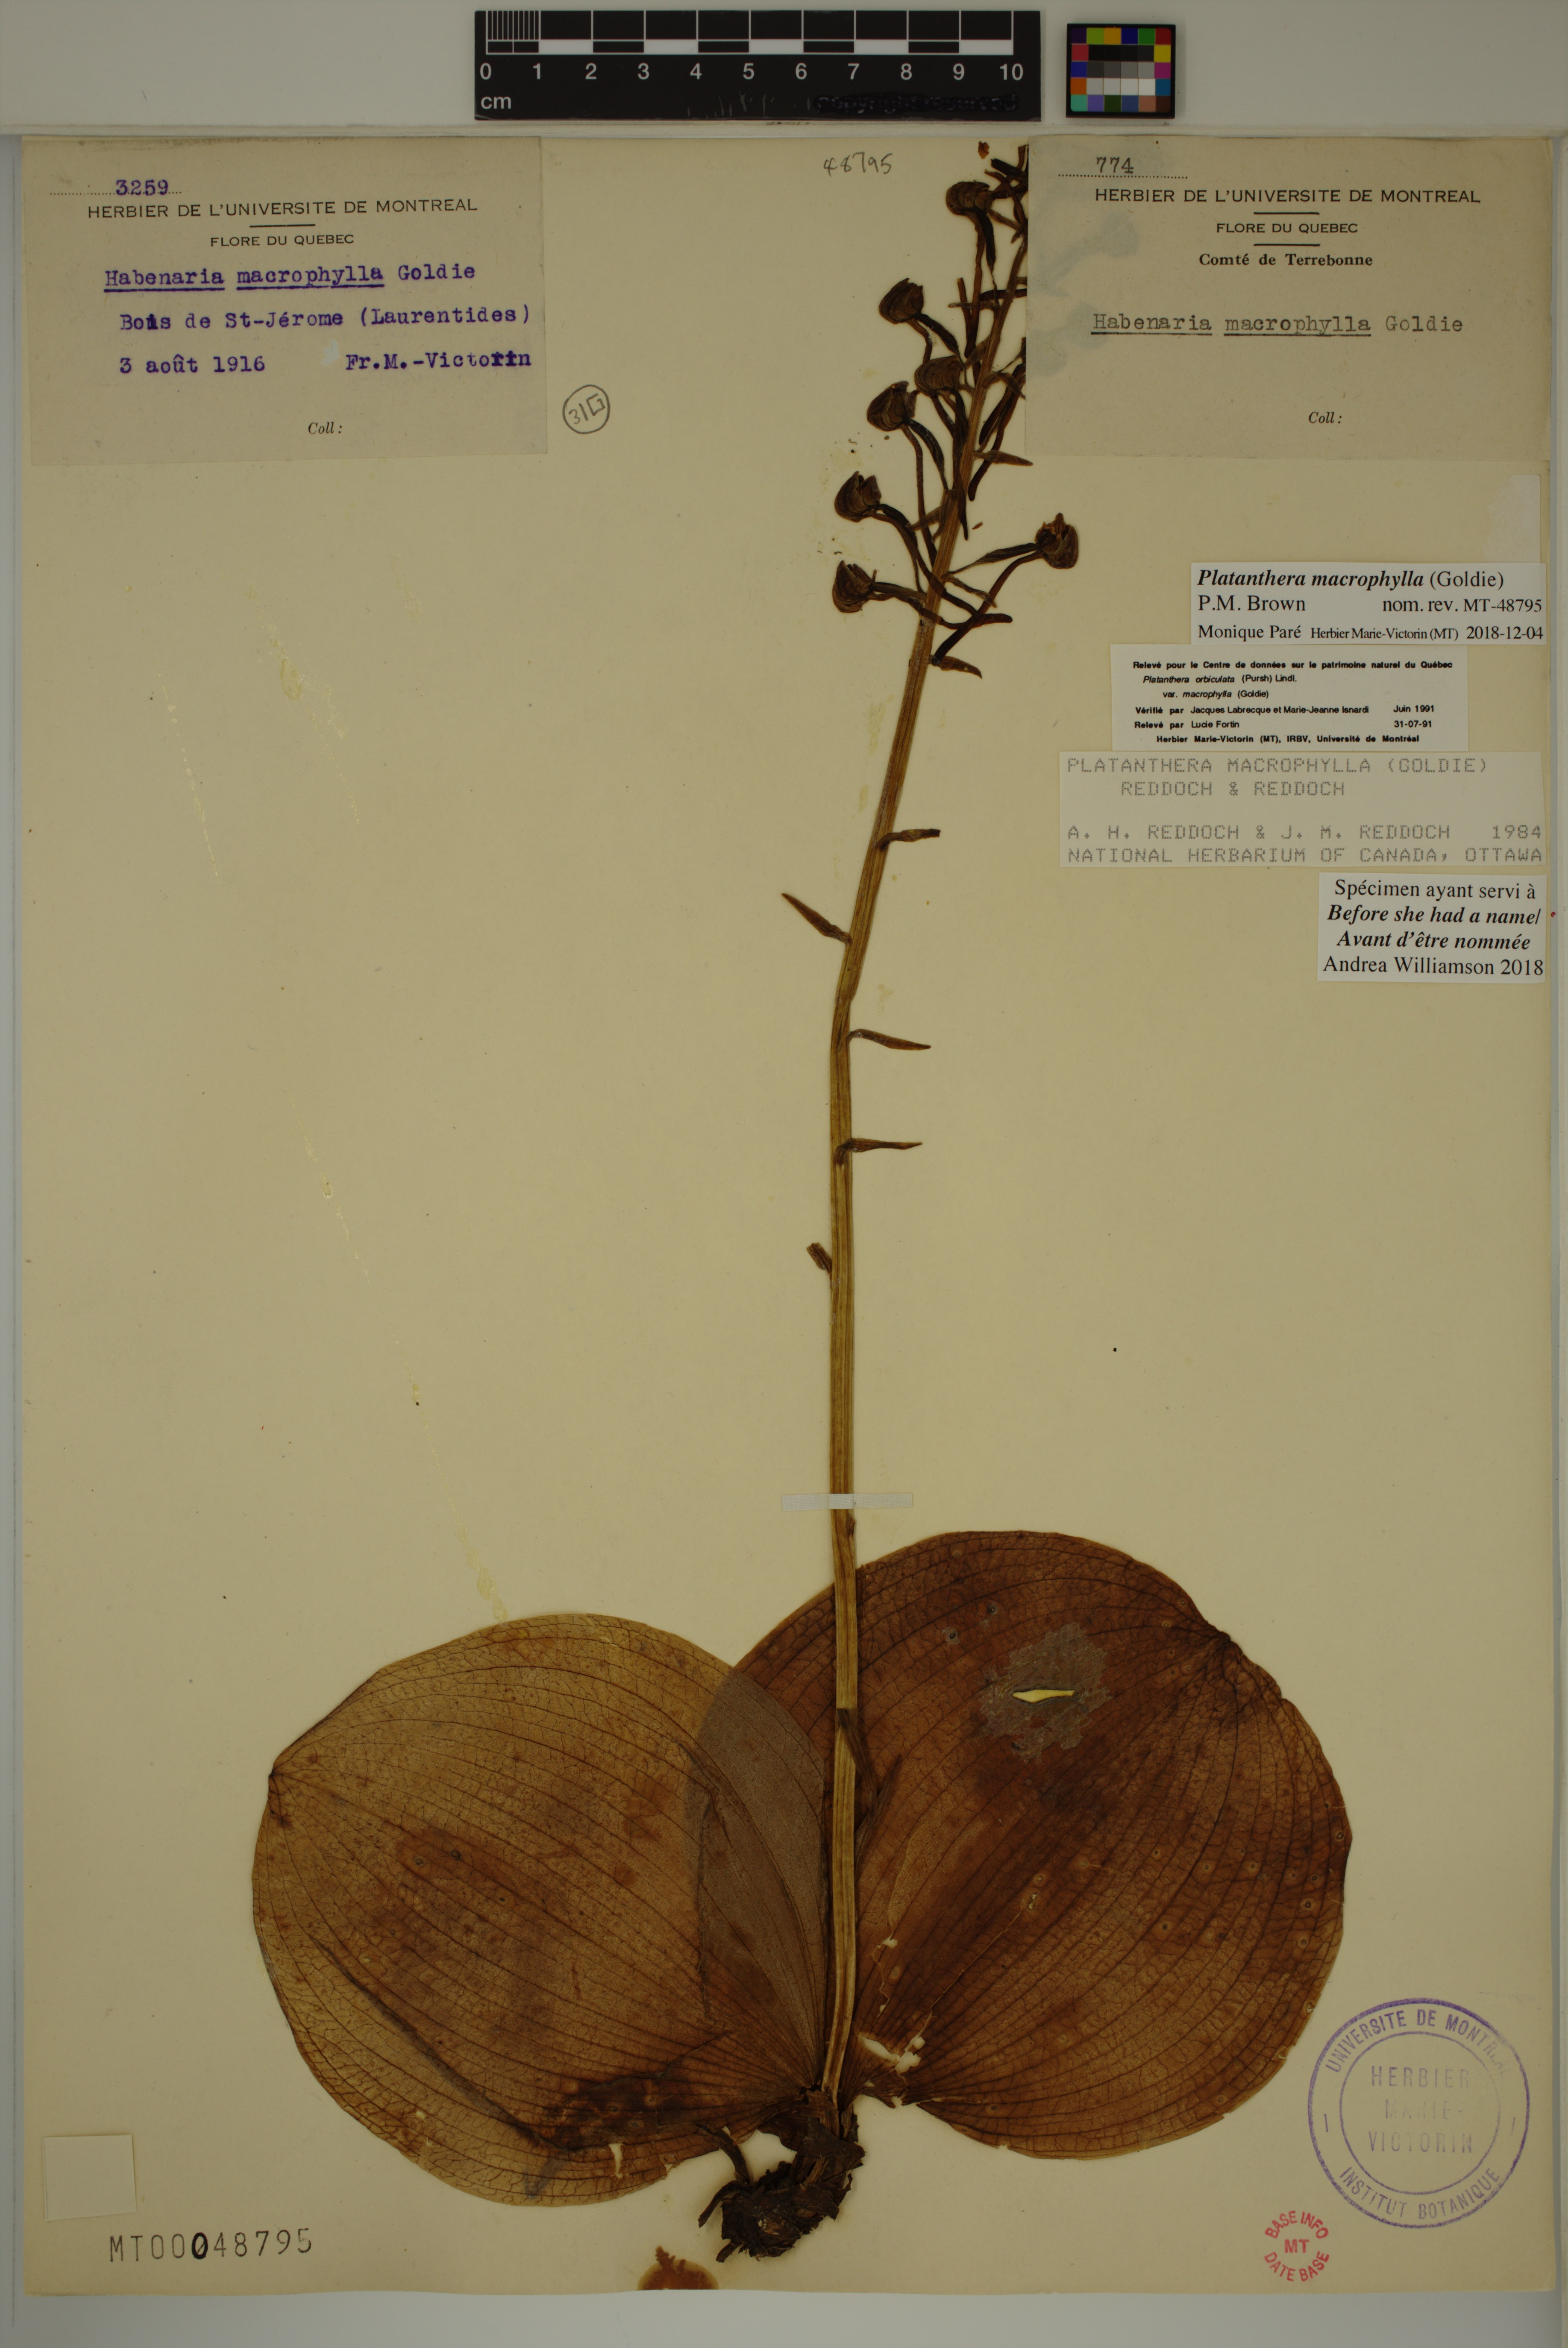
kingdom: Plantae
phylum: Tracheophyta
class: Liliopsida
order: Asparagales
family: Orchidaceae
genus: Platanthera
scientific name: Platanthera orbiculata
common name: Large round-leaved orchid
